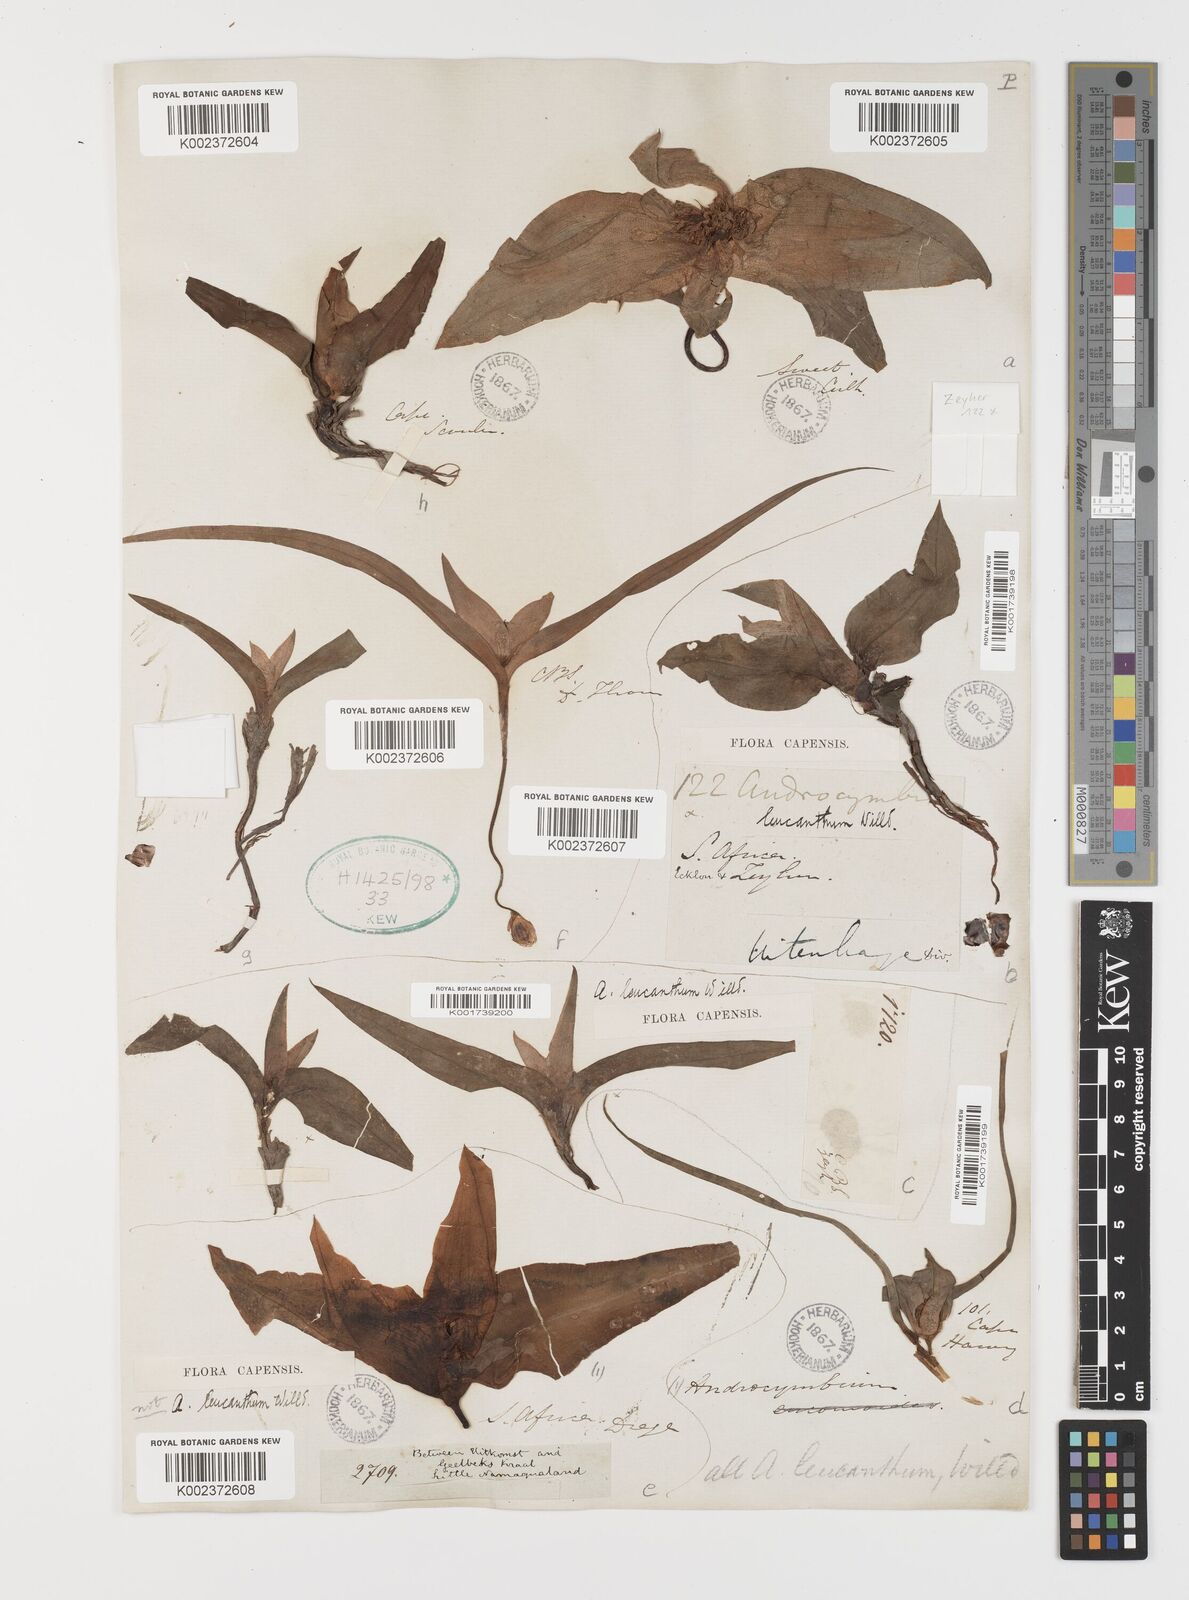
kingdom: Plantae
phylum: Tracheophyta
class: Liliopsida
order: Liliales
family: Colchicaceae
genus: Colchicum
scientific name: Colchicum capense
